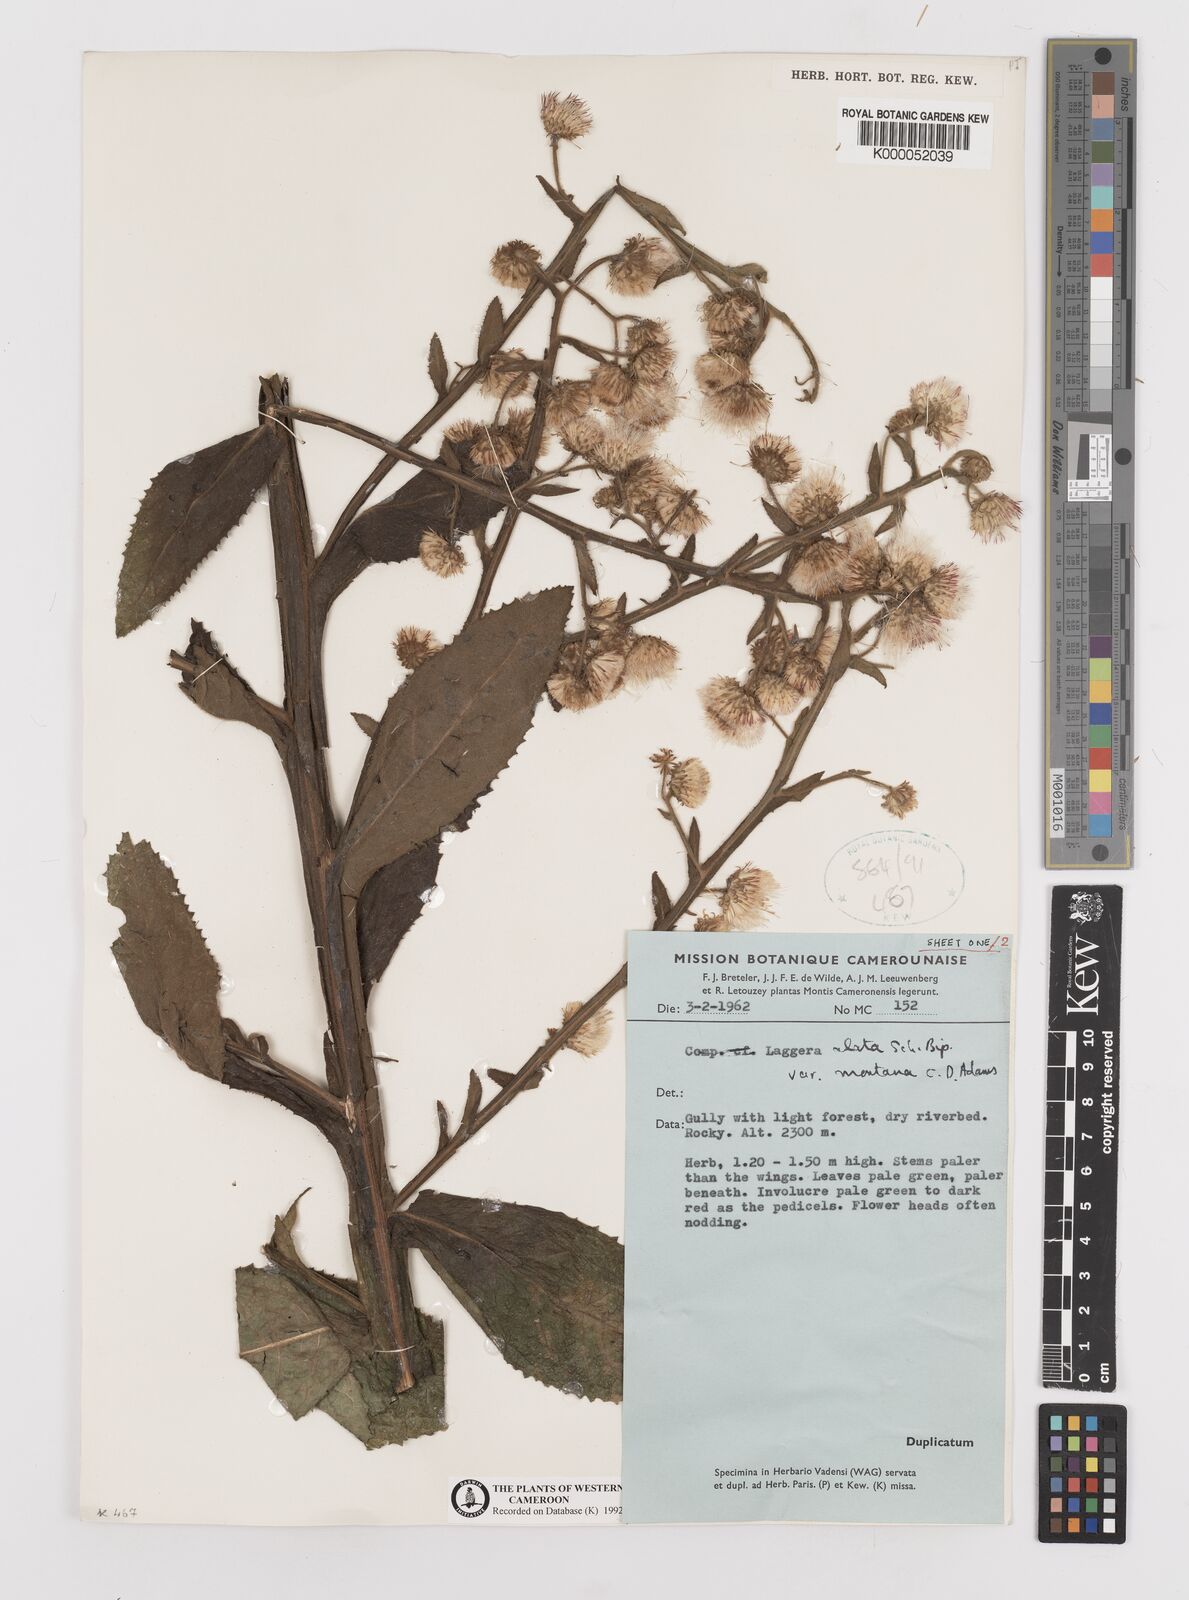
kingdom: Plantae
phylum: Tracheophyta
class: Magnoliopsida
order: Asterales
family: Asteraceae
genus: Laggera
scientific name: Laggera crispata
